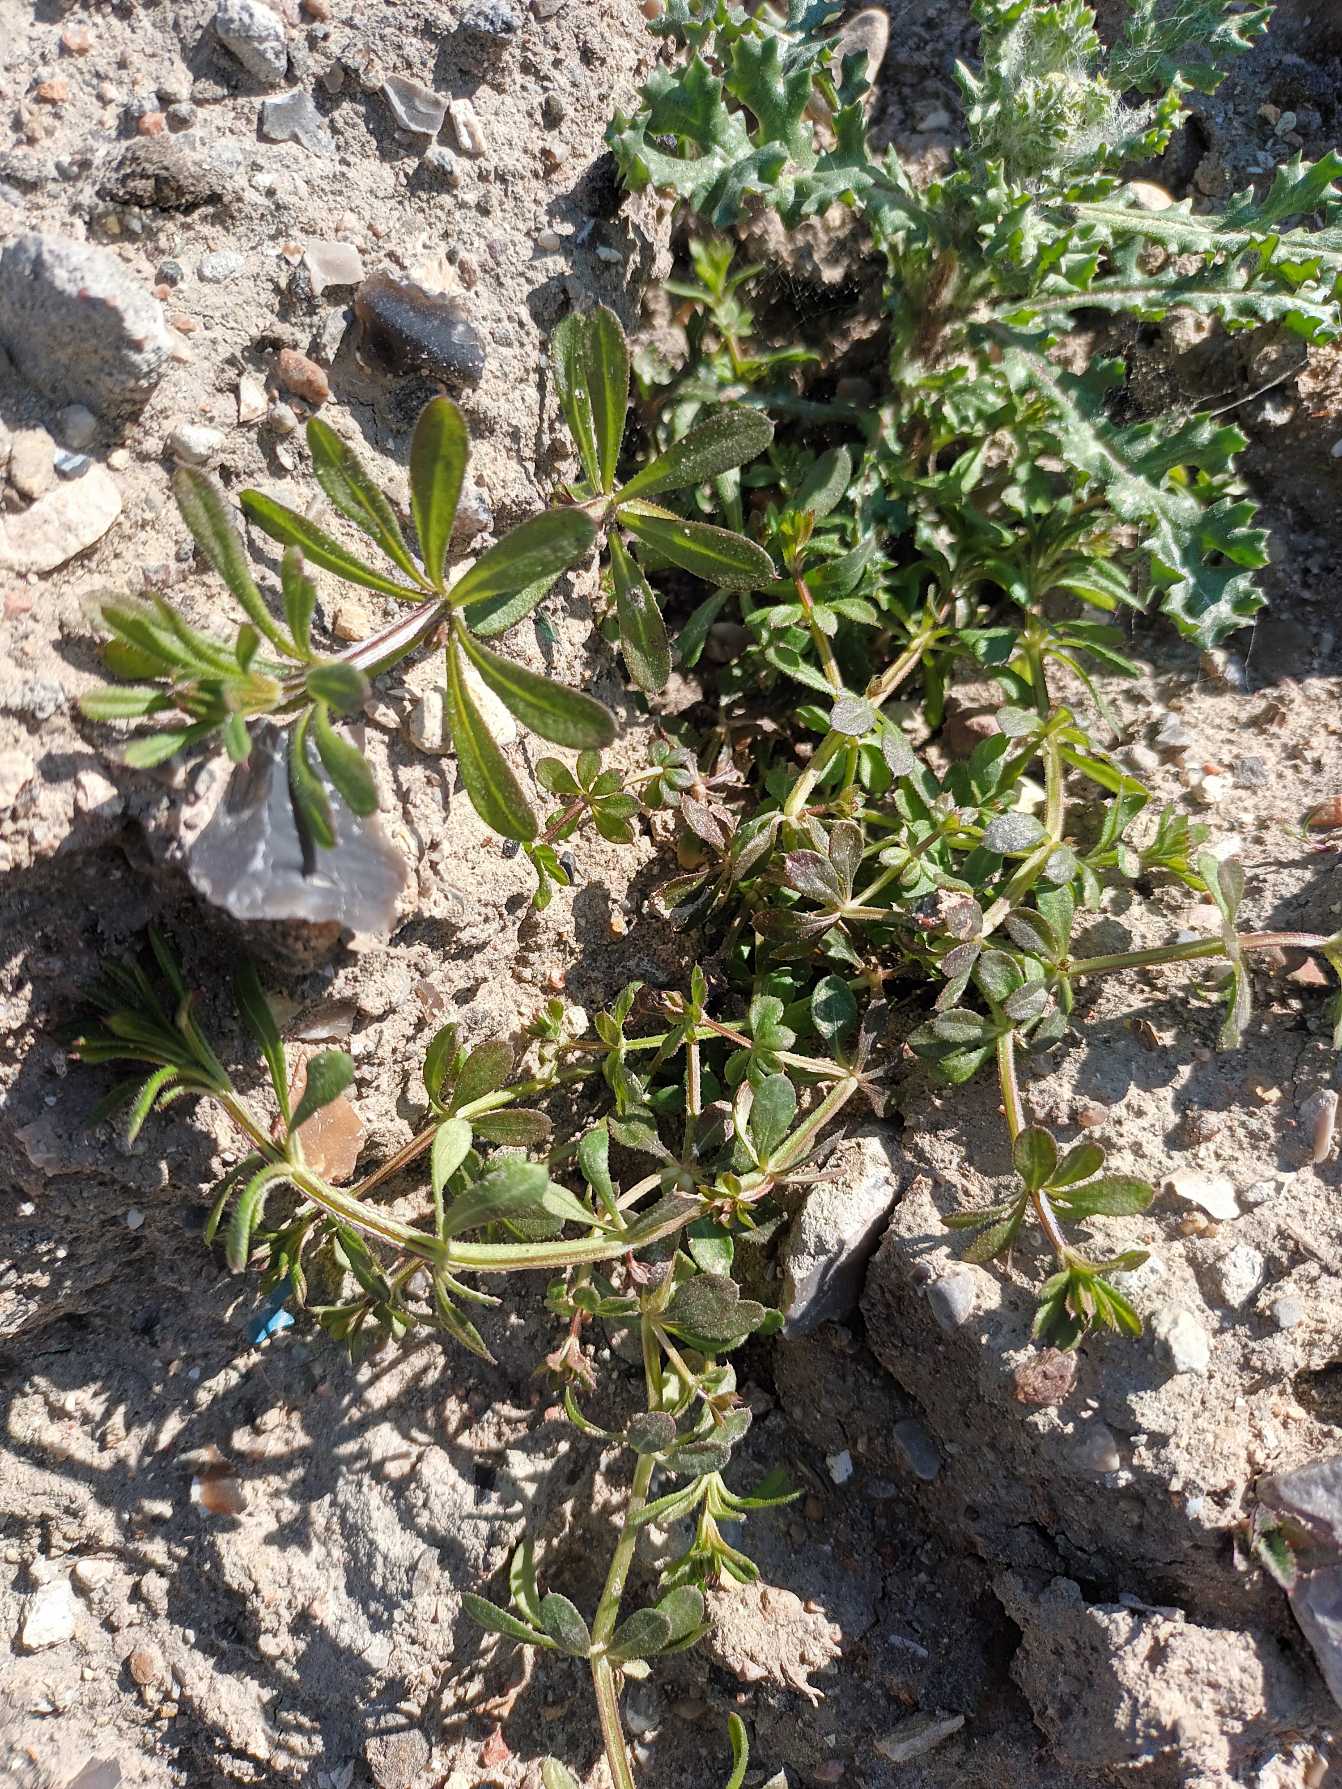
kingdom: Plantae
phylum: Tracheophyta
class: Magnoliopsida
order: Gentianales
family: Rubiaceae
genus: Galium
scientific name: Galium aparine
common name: Burre-snerre
